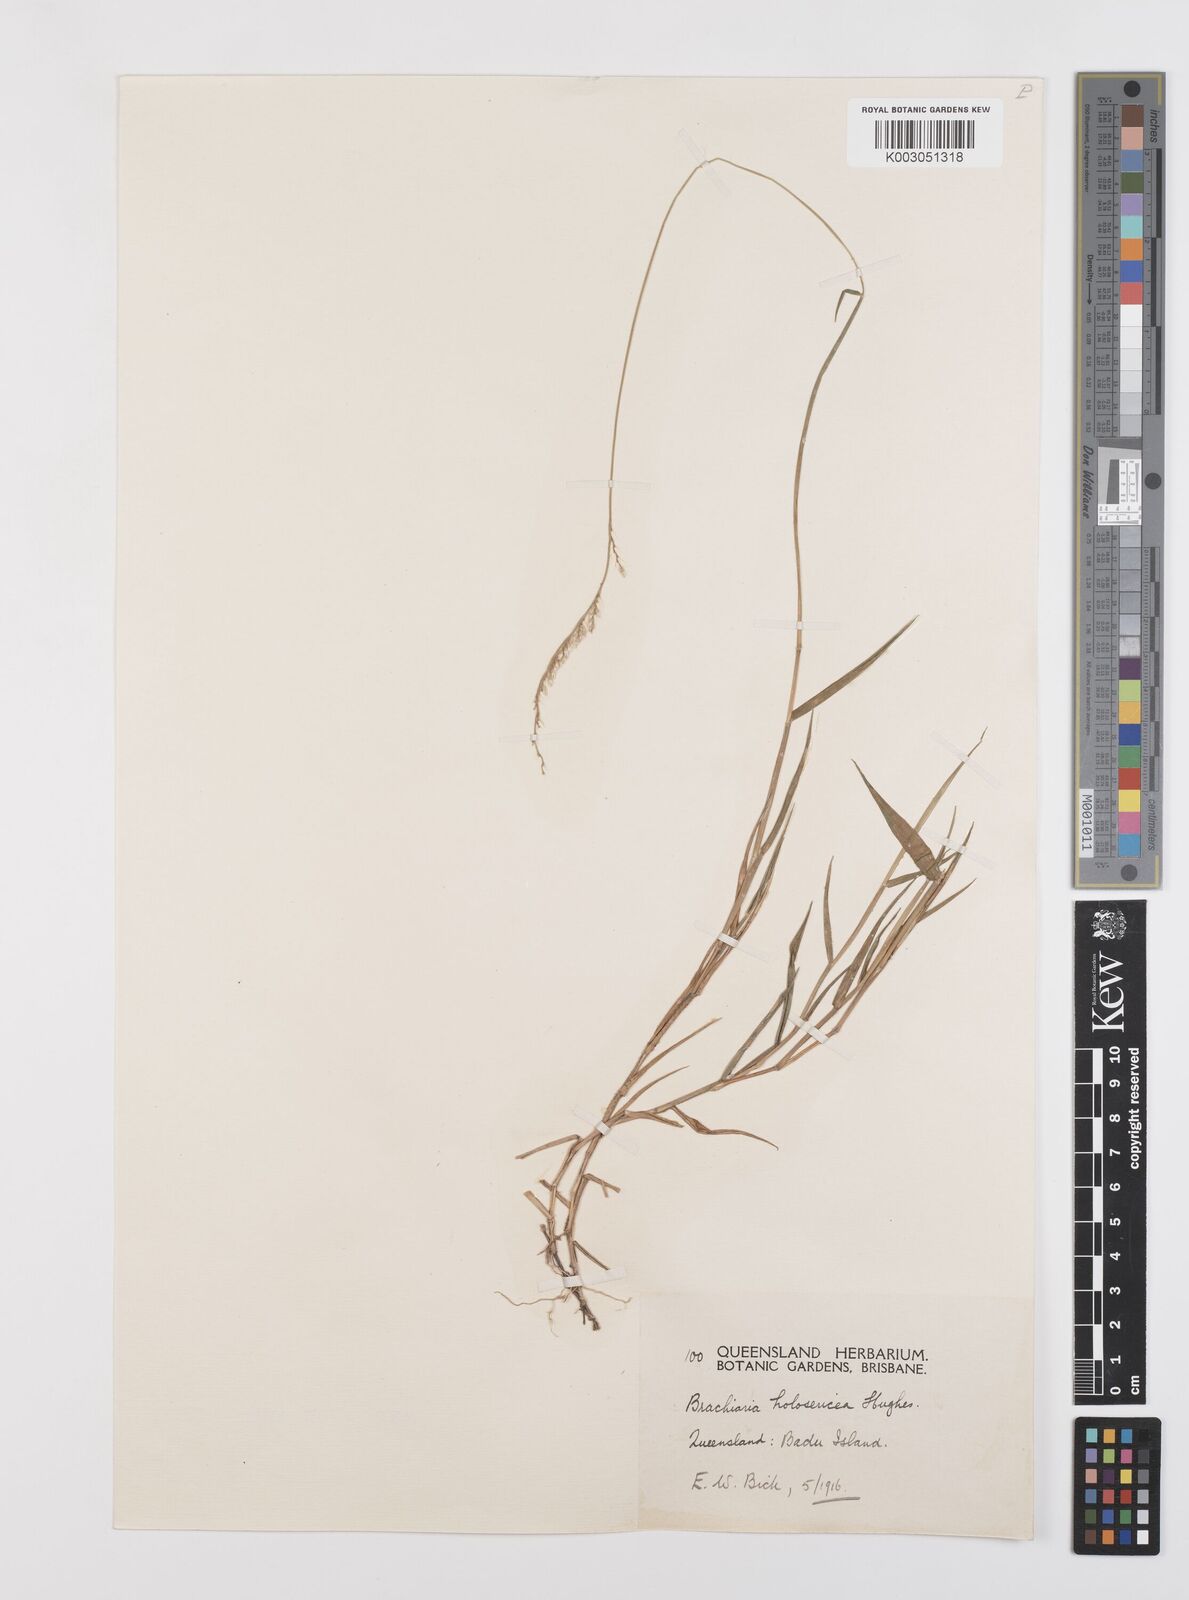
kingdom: Plantae
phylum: Tracheophyta
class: Liliopsida
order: Poales
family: Poaceae
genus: Urochloa
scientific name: Urochloa holosericea
